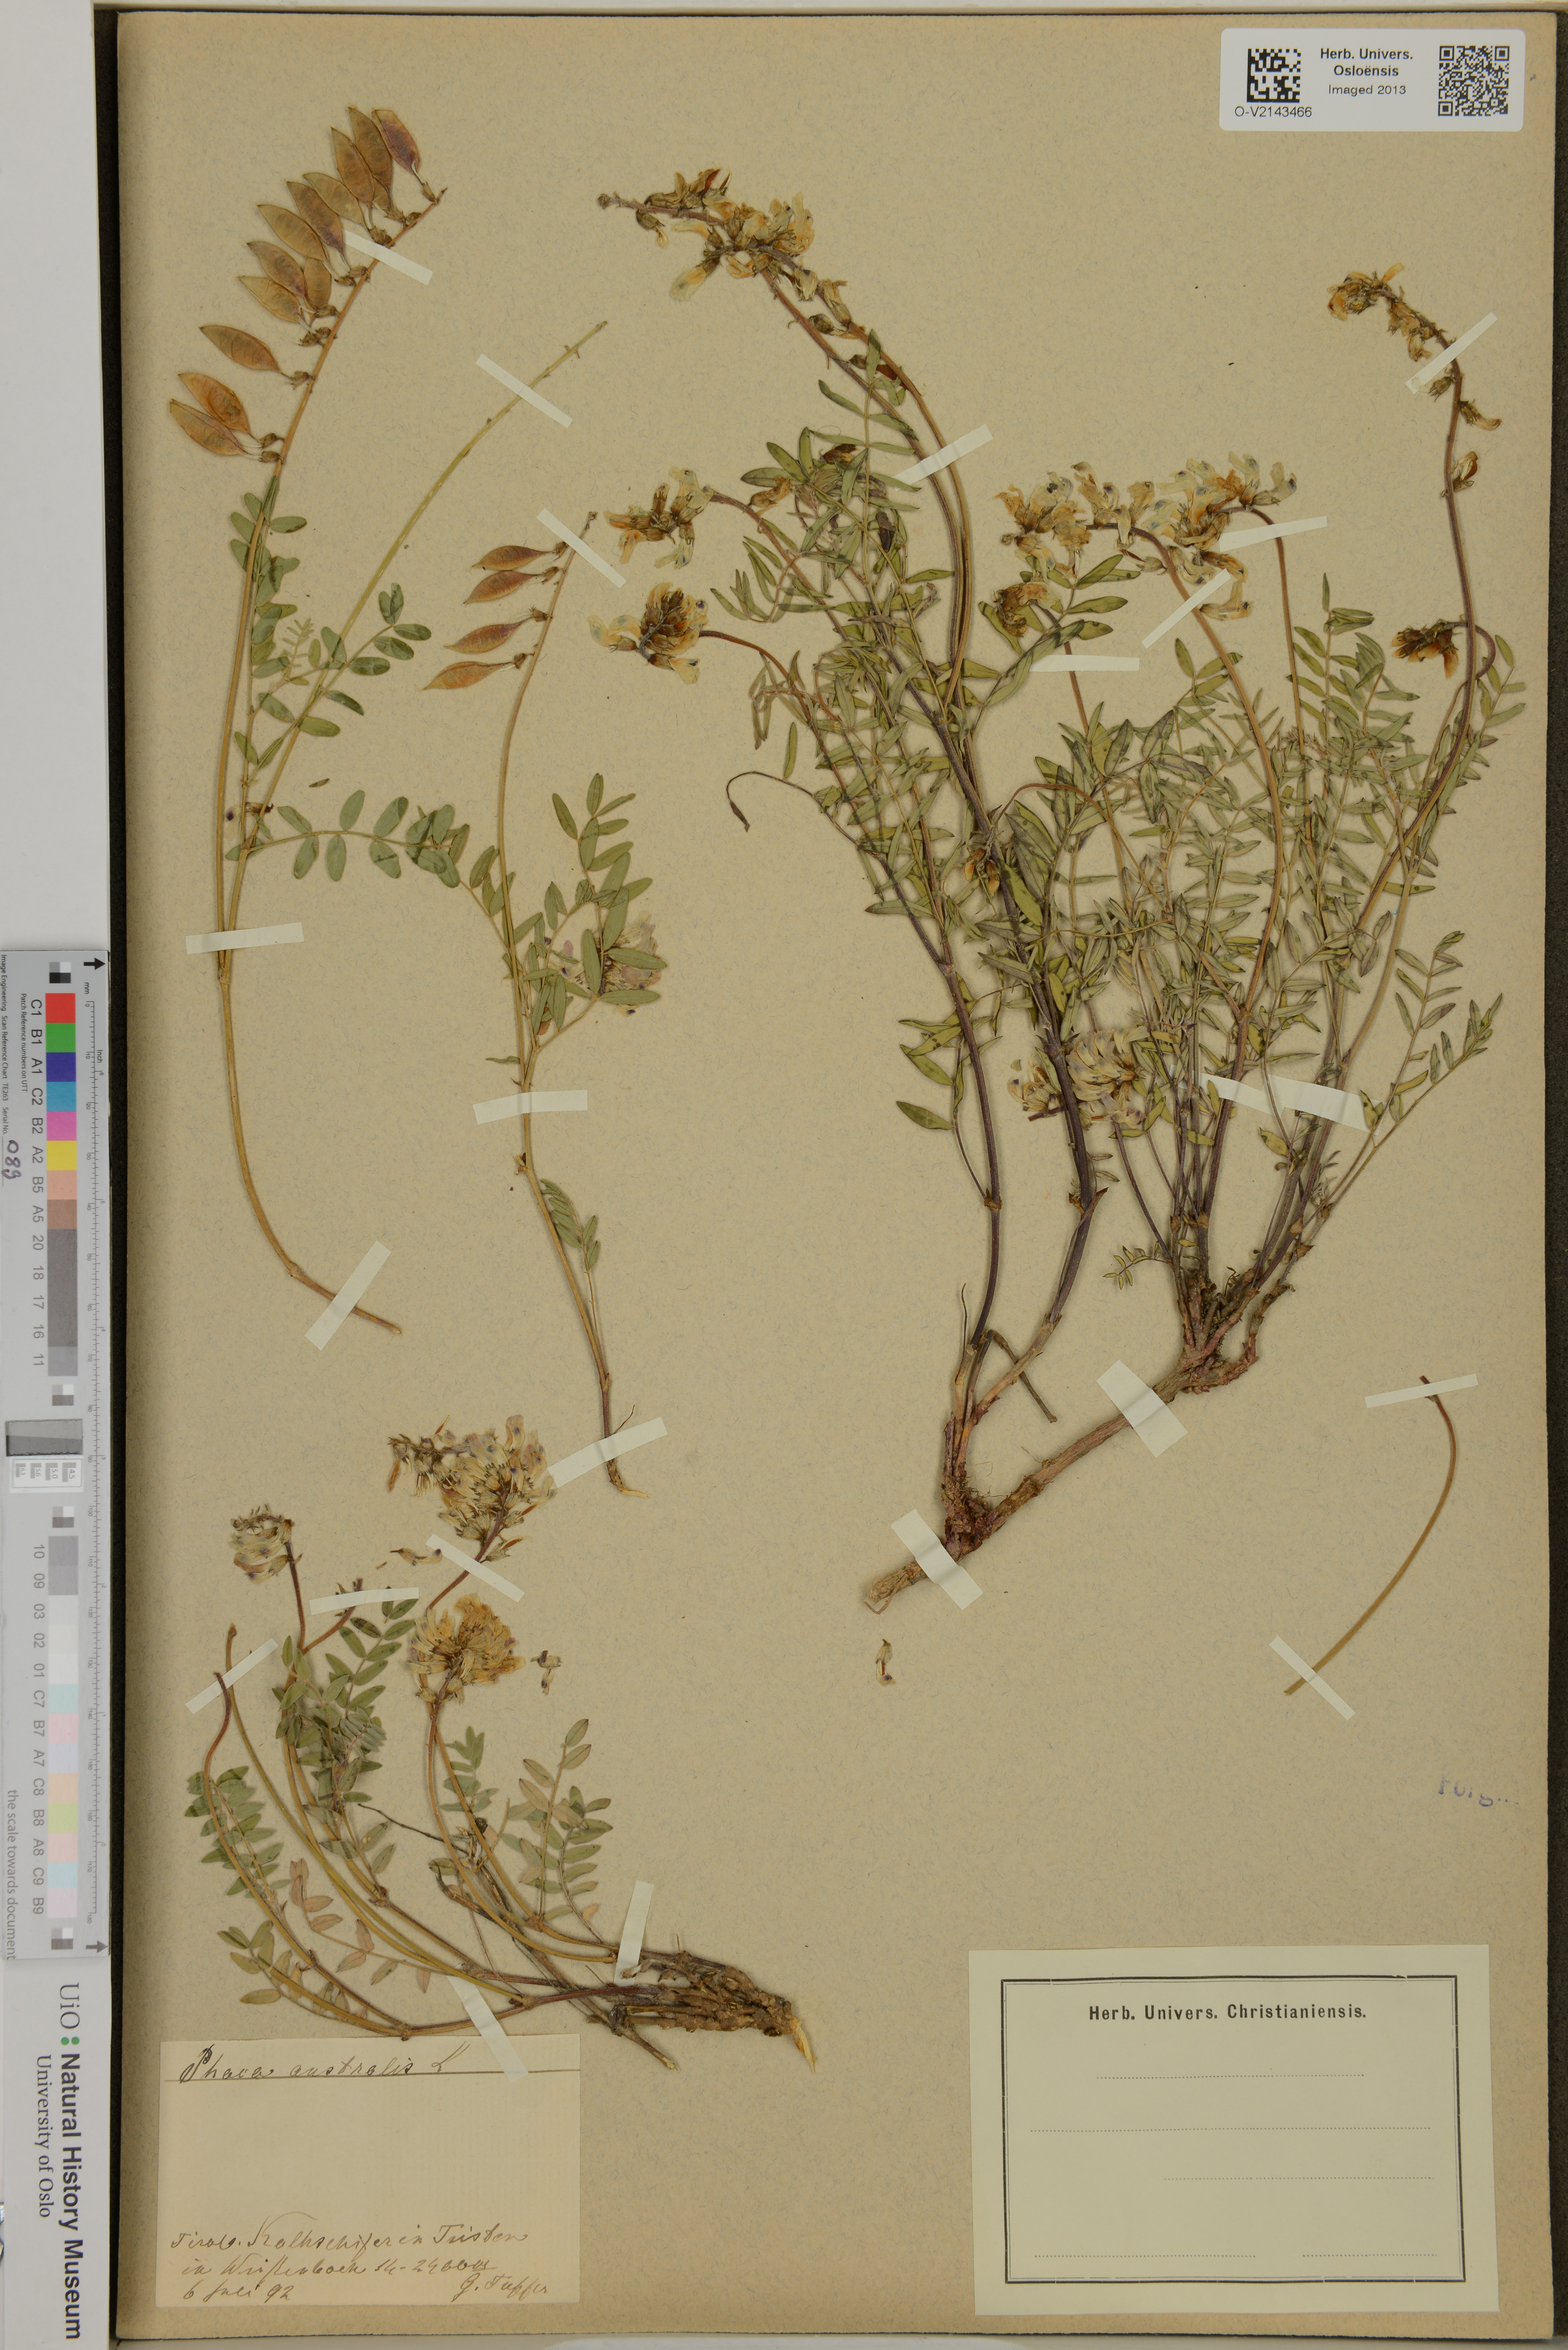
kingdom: Plantae
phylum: Tracheophyta
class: Magnoliopsida
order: Fabales
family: Fabaceae
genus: Astragalus
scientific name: Astragalus australis
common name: Indian milk-vetch
